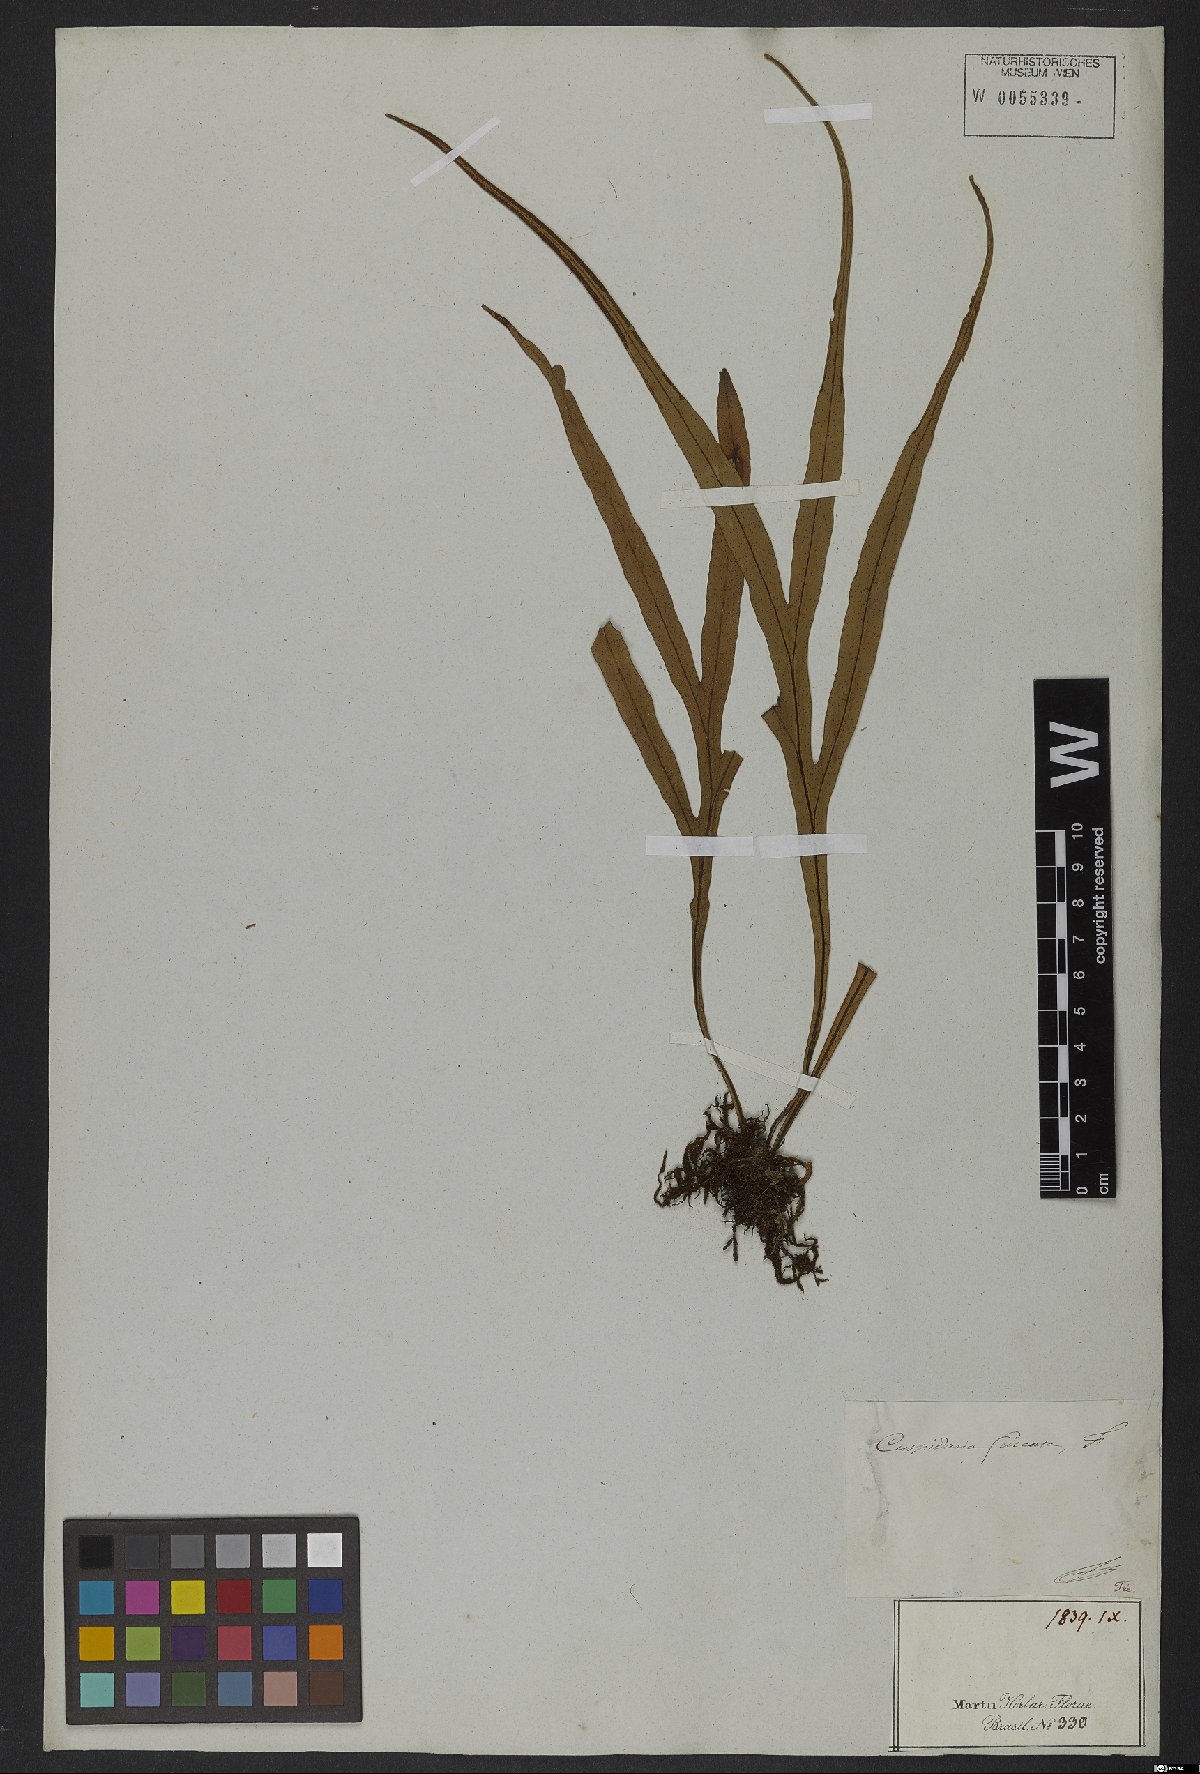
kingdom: Plantae
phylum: Tracheophyta
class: Polypodiopsida
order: Polypodiales
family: Thelypteridaceae
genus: Christella
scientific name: Christella parasitica
